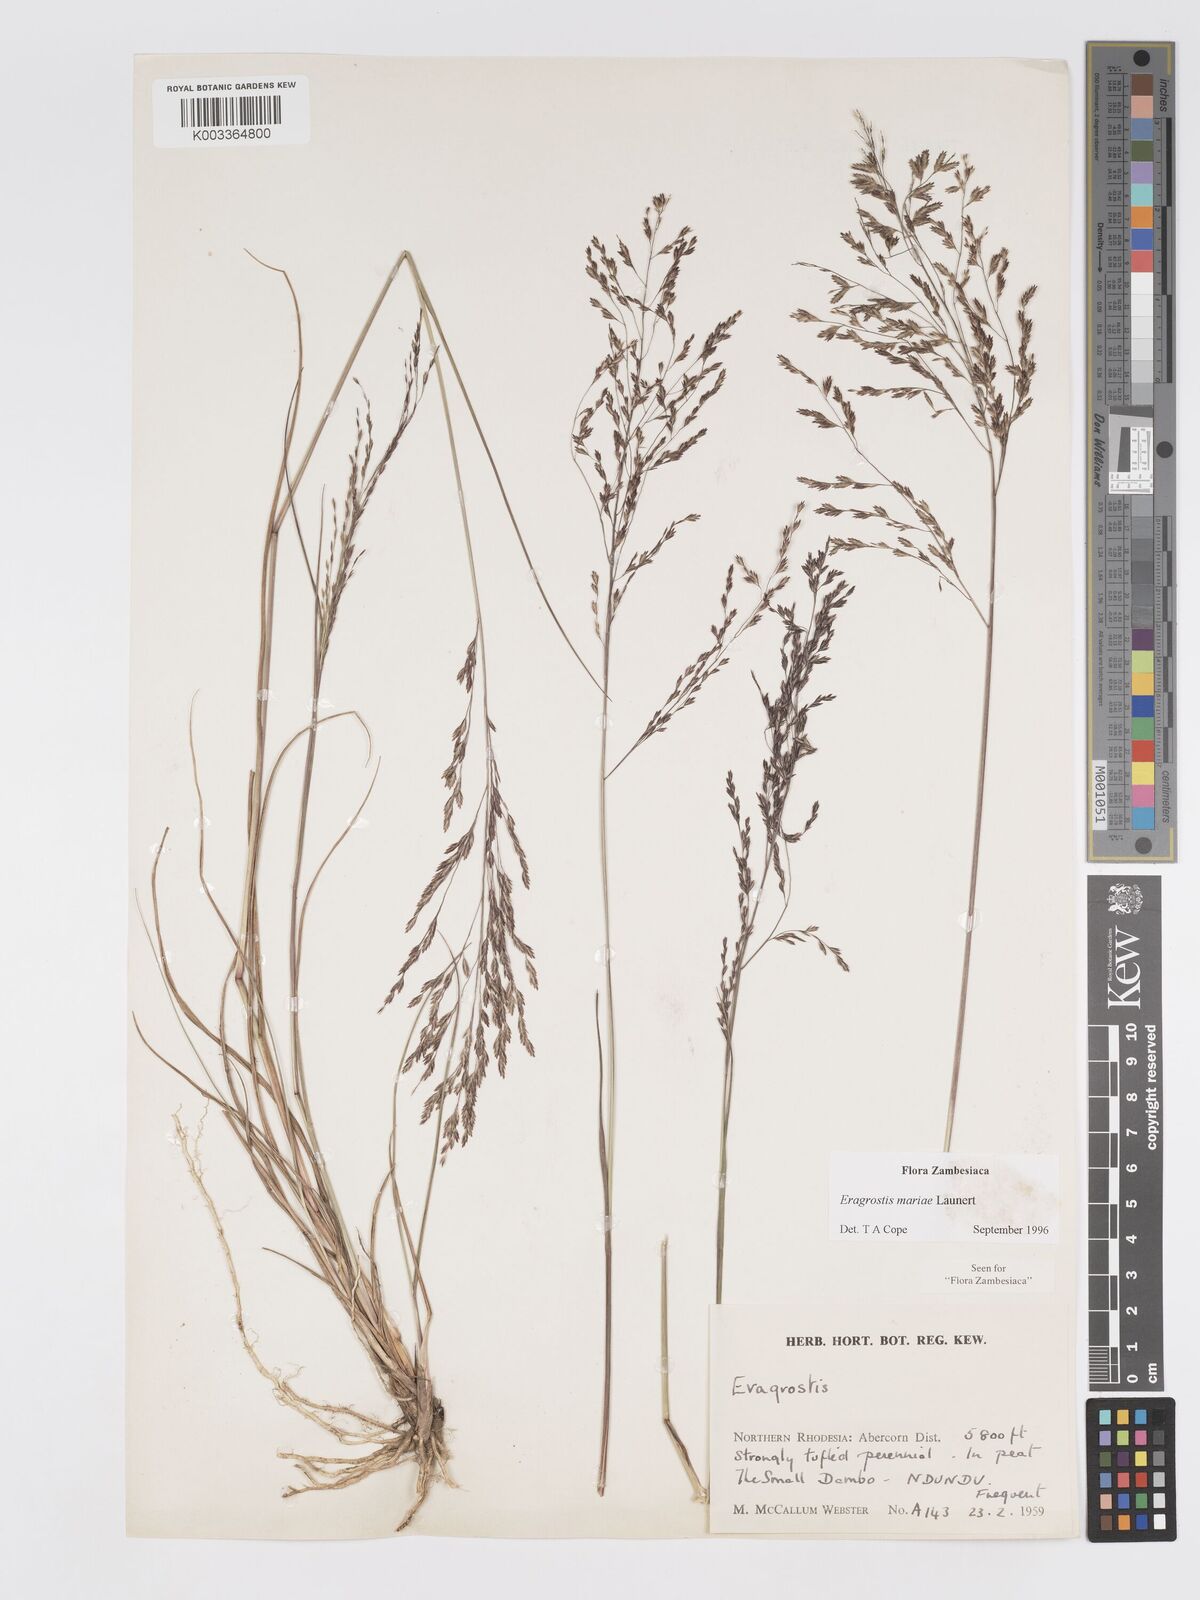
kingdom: Plantae
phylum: Tracheophyta
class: Liliopsida
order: Poales
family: Poaceae
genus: Eragrostis
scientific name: Eragrostis mariae
